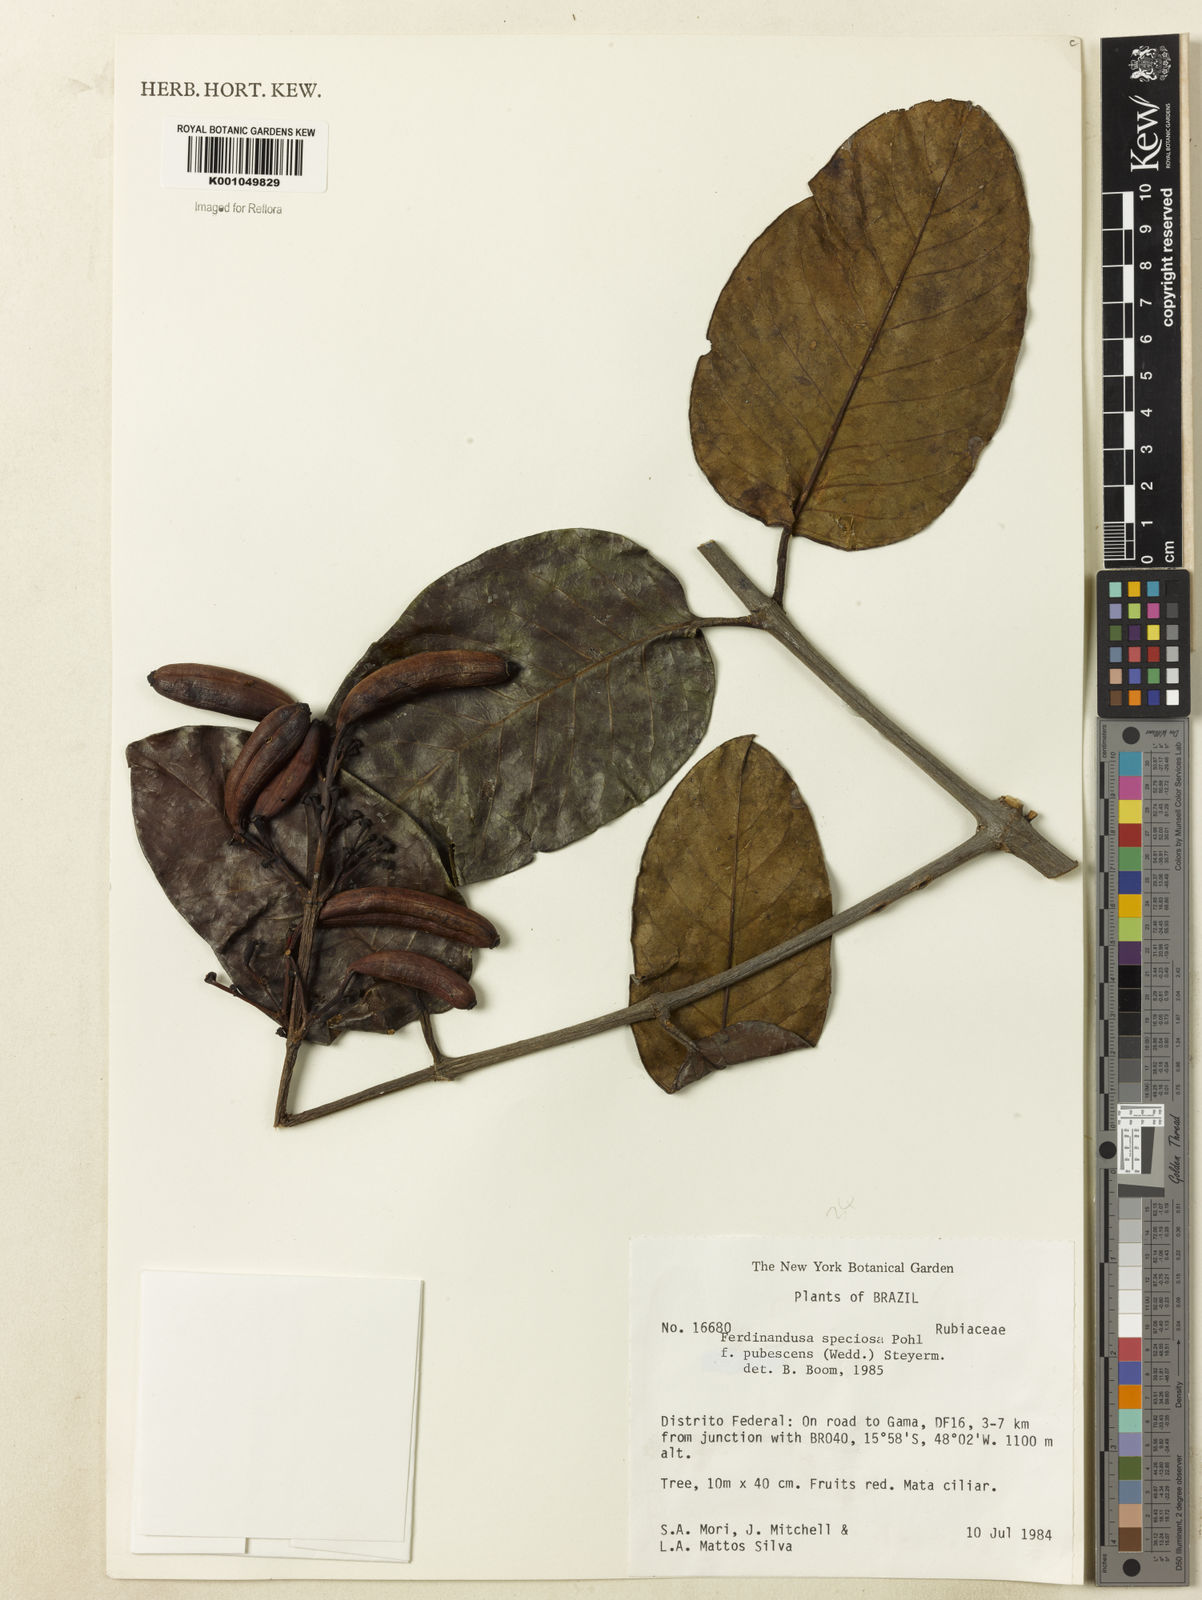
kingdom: Plantae
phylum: Tracheophyta
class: Magnoliopsida
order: Gentianales
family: Rubiaceae
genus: Ferdinandusa
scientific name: Ferdinandusa speciosa
